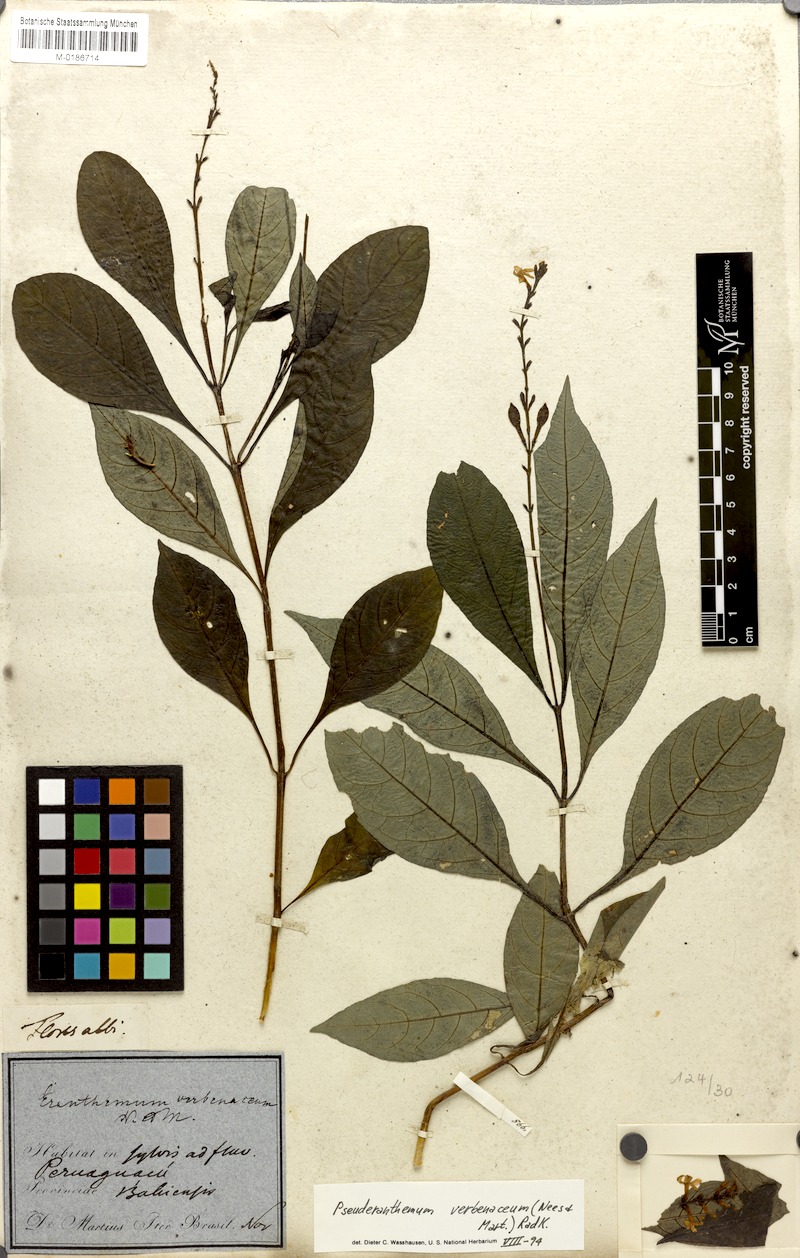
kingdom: Plantae
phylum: Tracheophyta
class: Magnoliopsida
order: Lamiales
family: Acanthaceae
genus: Pseuderanthemum
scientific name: Pseuderanthemum verbenaceum
